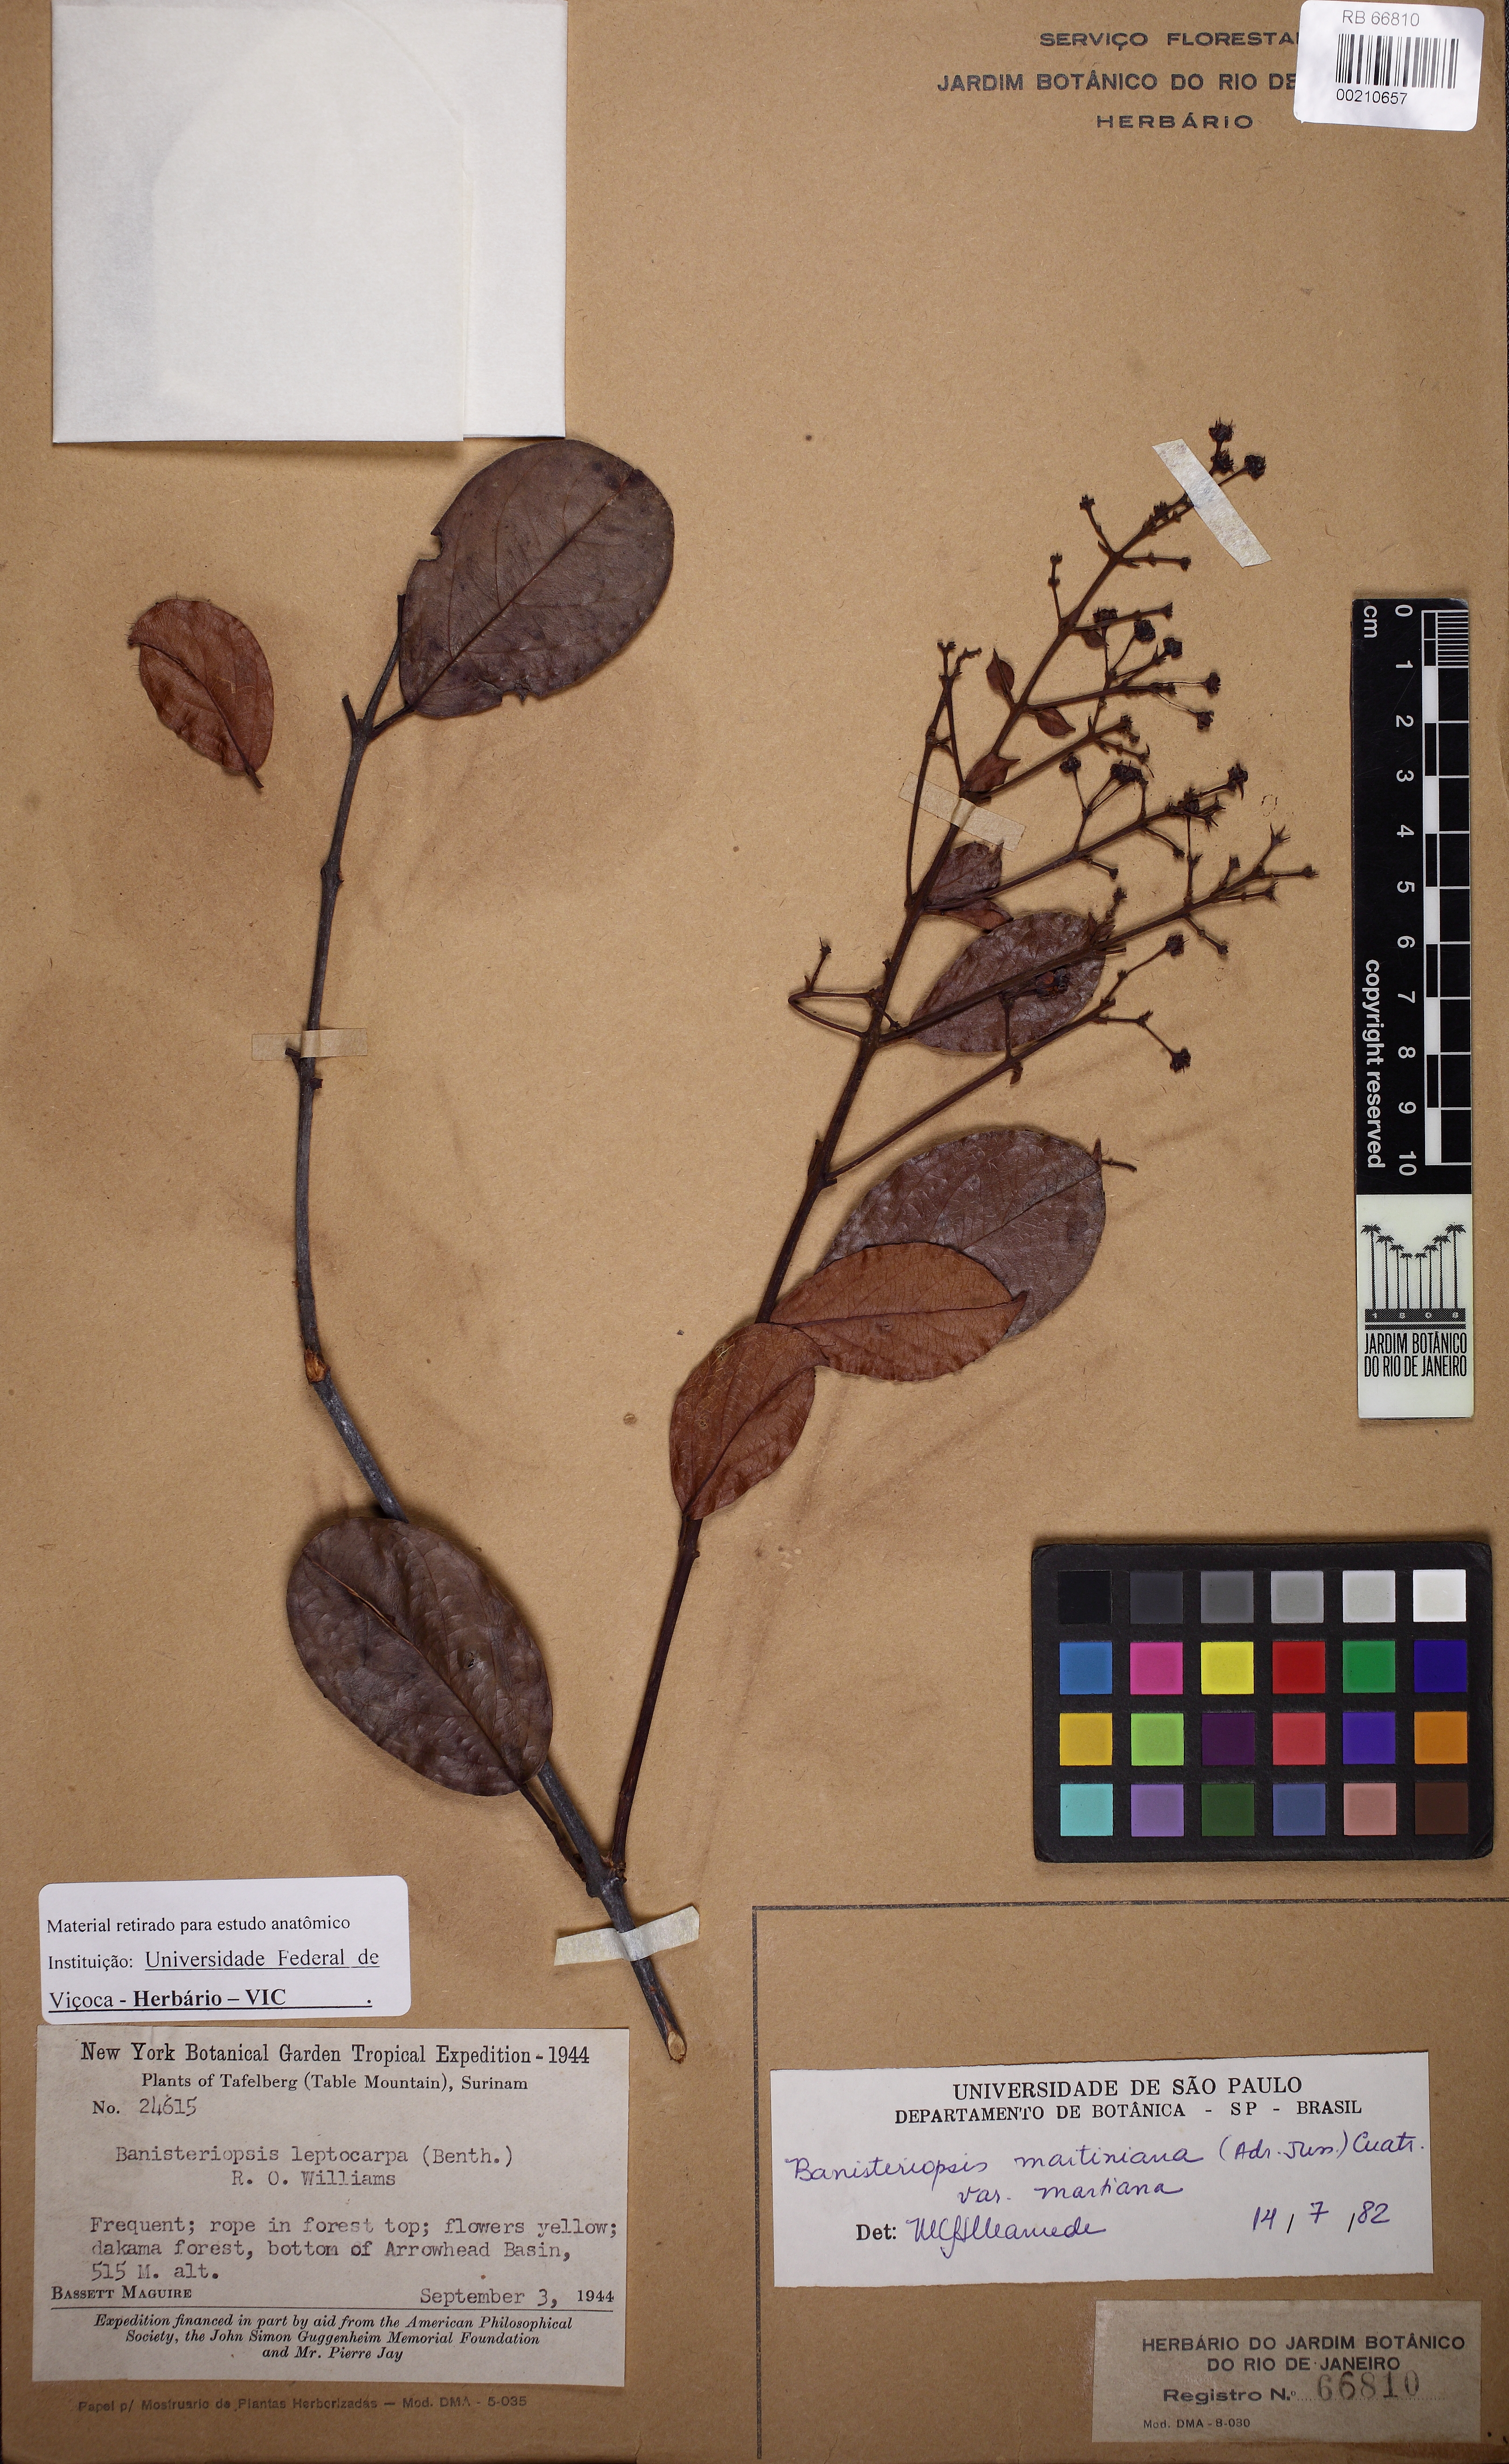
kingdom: Plantae
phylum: Tracheophyta
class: Magnoliopsida
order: Malpighiales
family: Malpighiaceae
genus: Banisteriopsis
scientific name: Banisteriopsis martiniana
